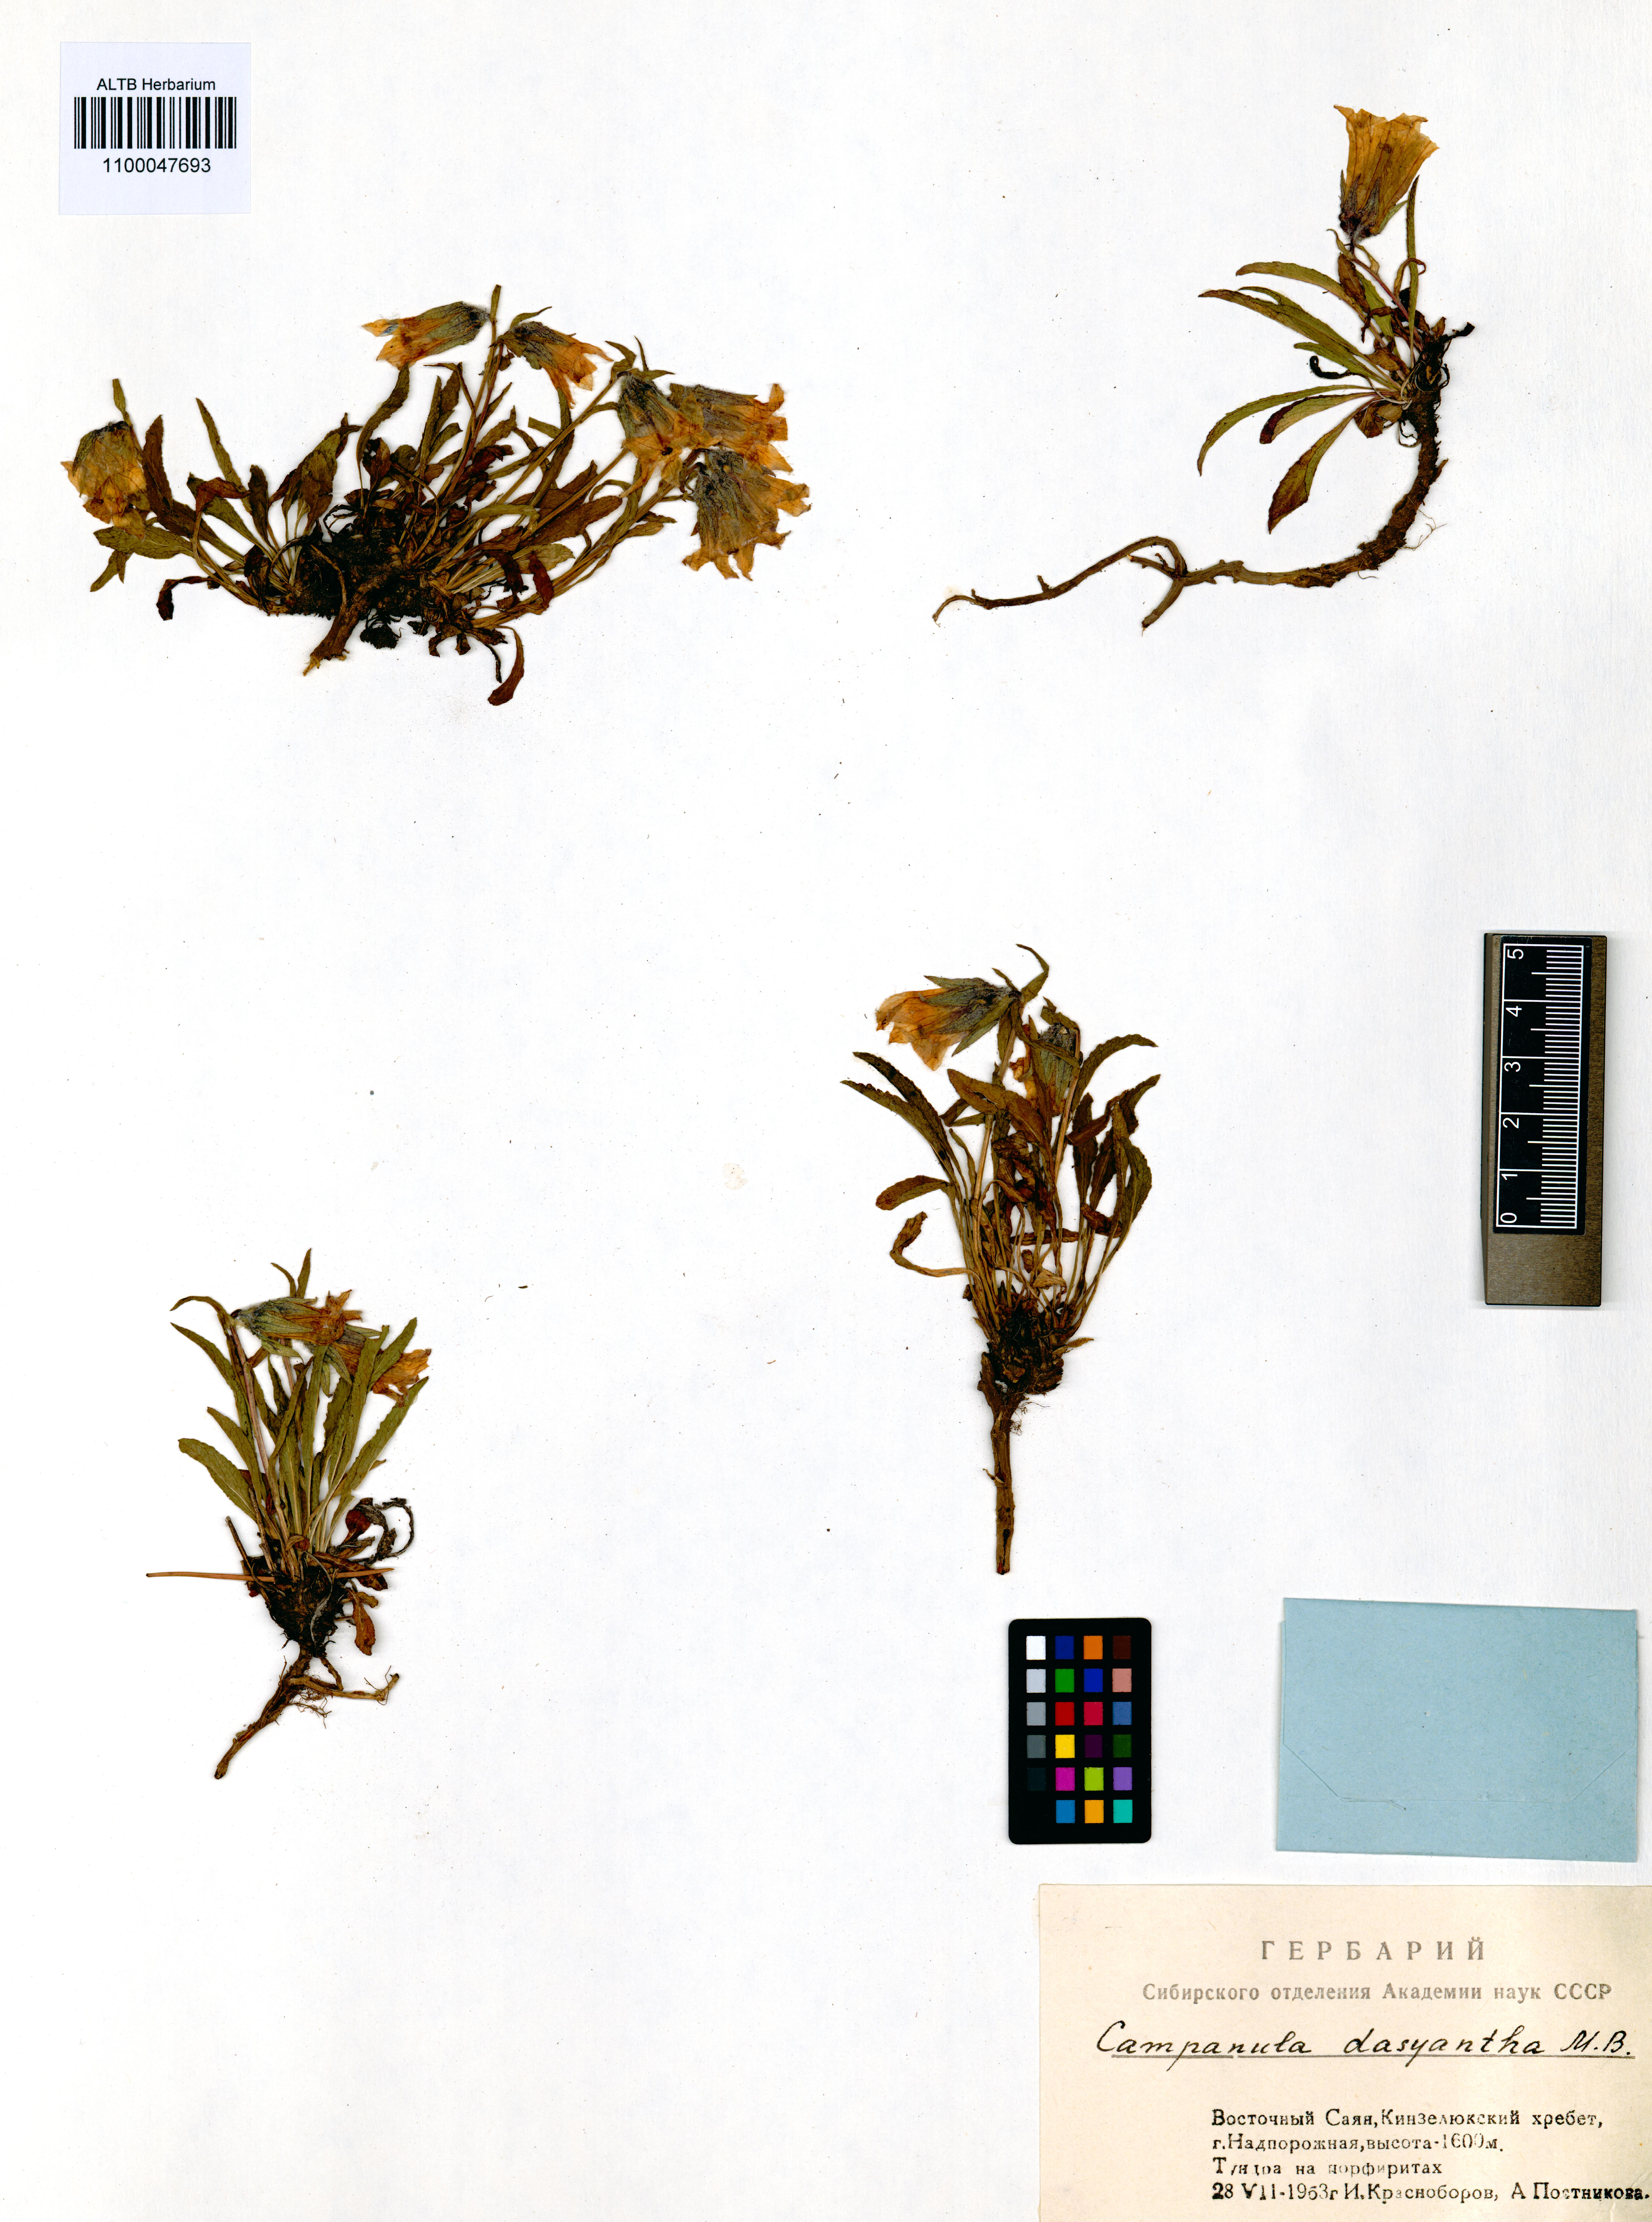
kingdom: Plantae
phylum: Tracheophyta
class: Magnoliopsida
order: Asterales
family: Campanulaceae
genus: Campanula
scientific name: Campanula dasyantha
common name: Hairyflower bellflower
